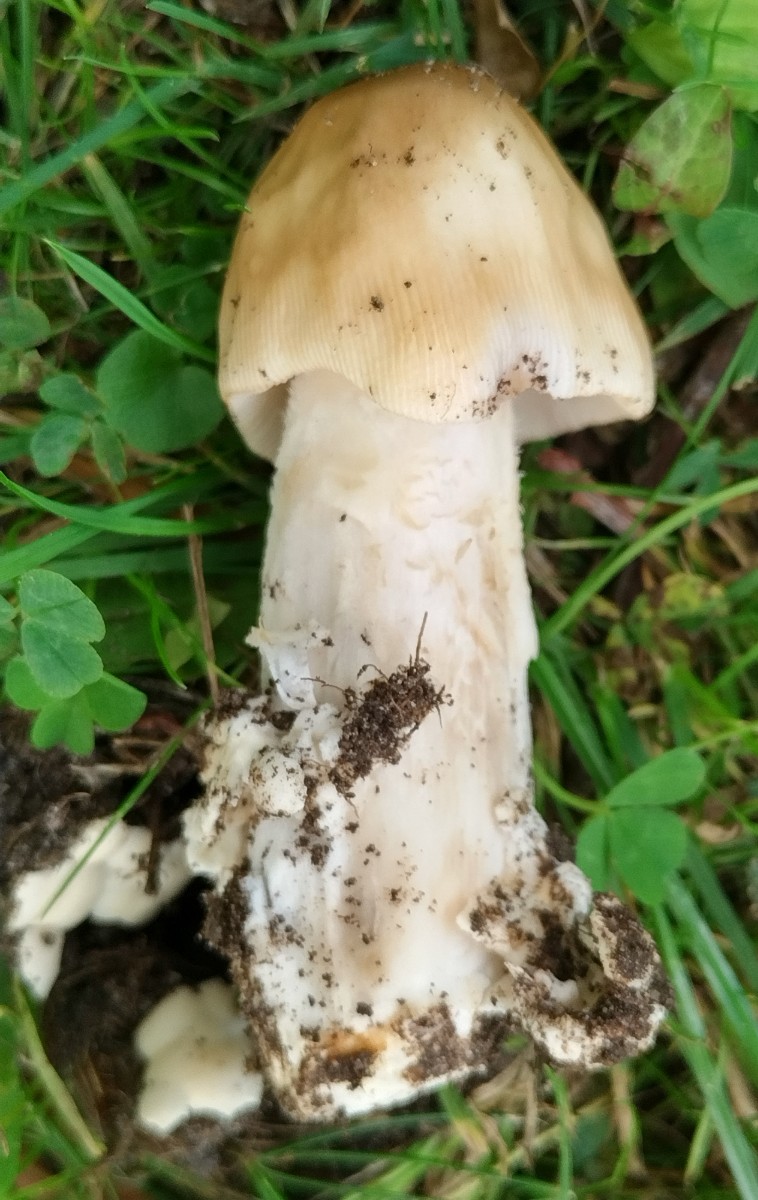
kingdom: Fungi
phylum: Basidiomycota
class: Agaricomycetes
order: Agaricales
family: Amanitaceae
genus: Amanita
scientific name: Amanita lividopallescens
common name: afblegende kam-fluesvamp
